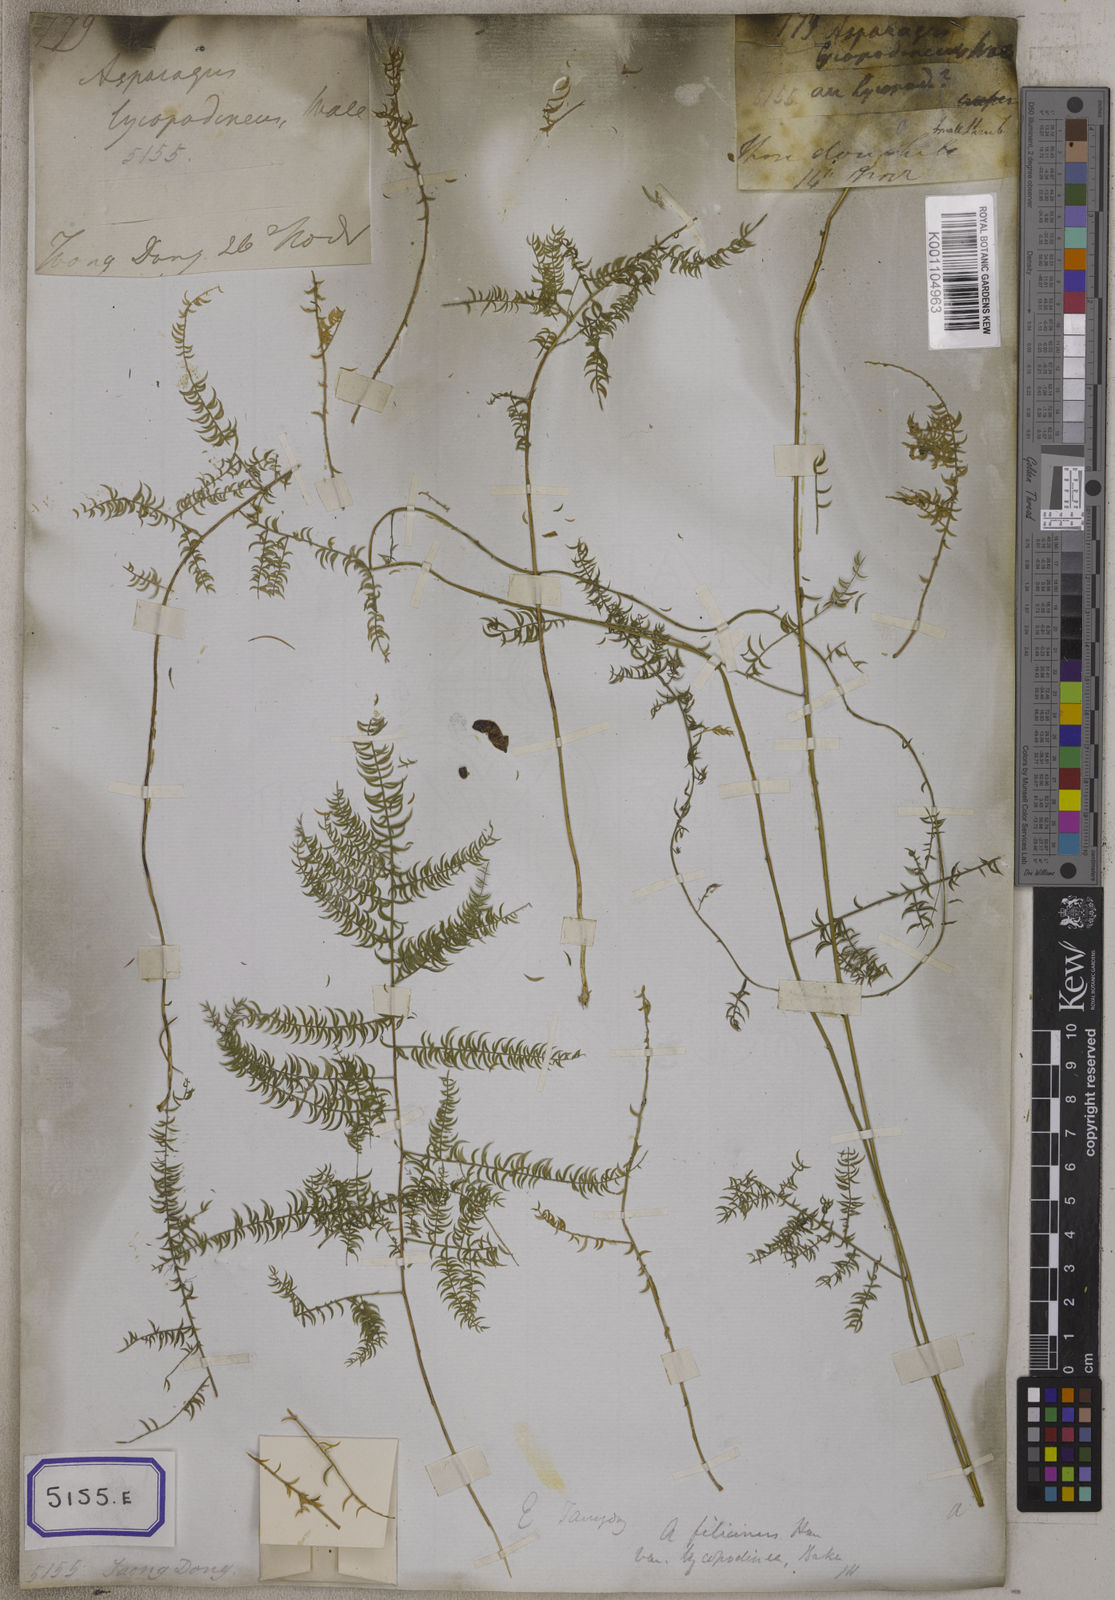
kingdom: Plantae
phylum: Tracheophyta
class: Liliopsida
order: Asparagales
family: Asparagaceae
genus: Asparagus
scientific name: Asparagus
